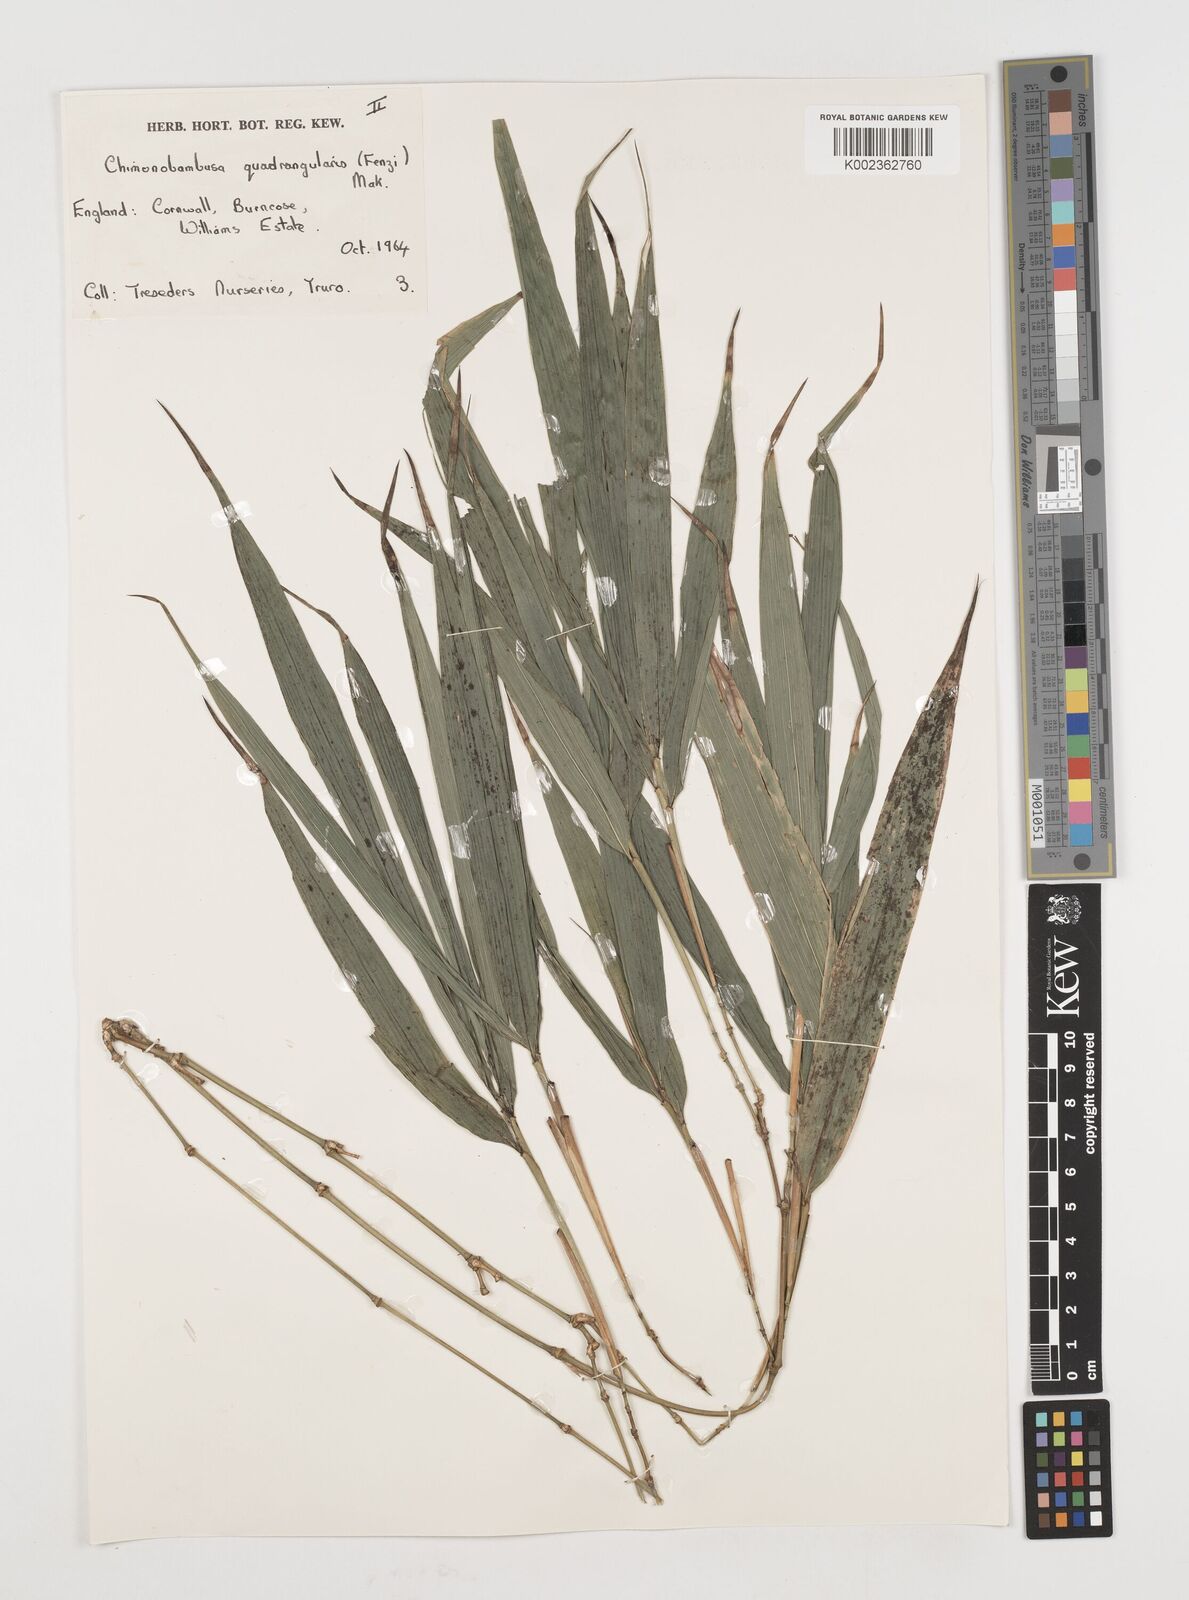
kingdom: Plantae
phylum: Tracheophyta
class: Liliopsida
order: Poales
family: Poaceae
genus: Chimonobambusa
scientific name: Chimonobambusa quadrangularis
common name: Square-stemmed bamboo
